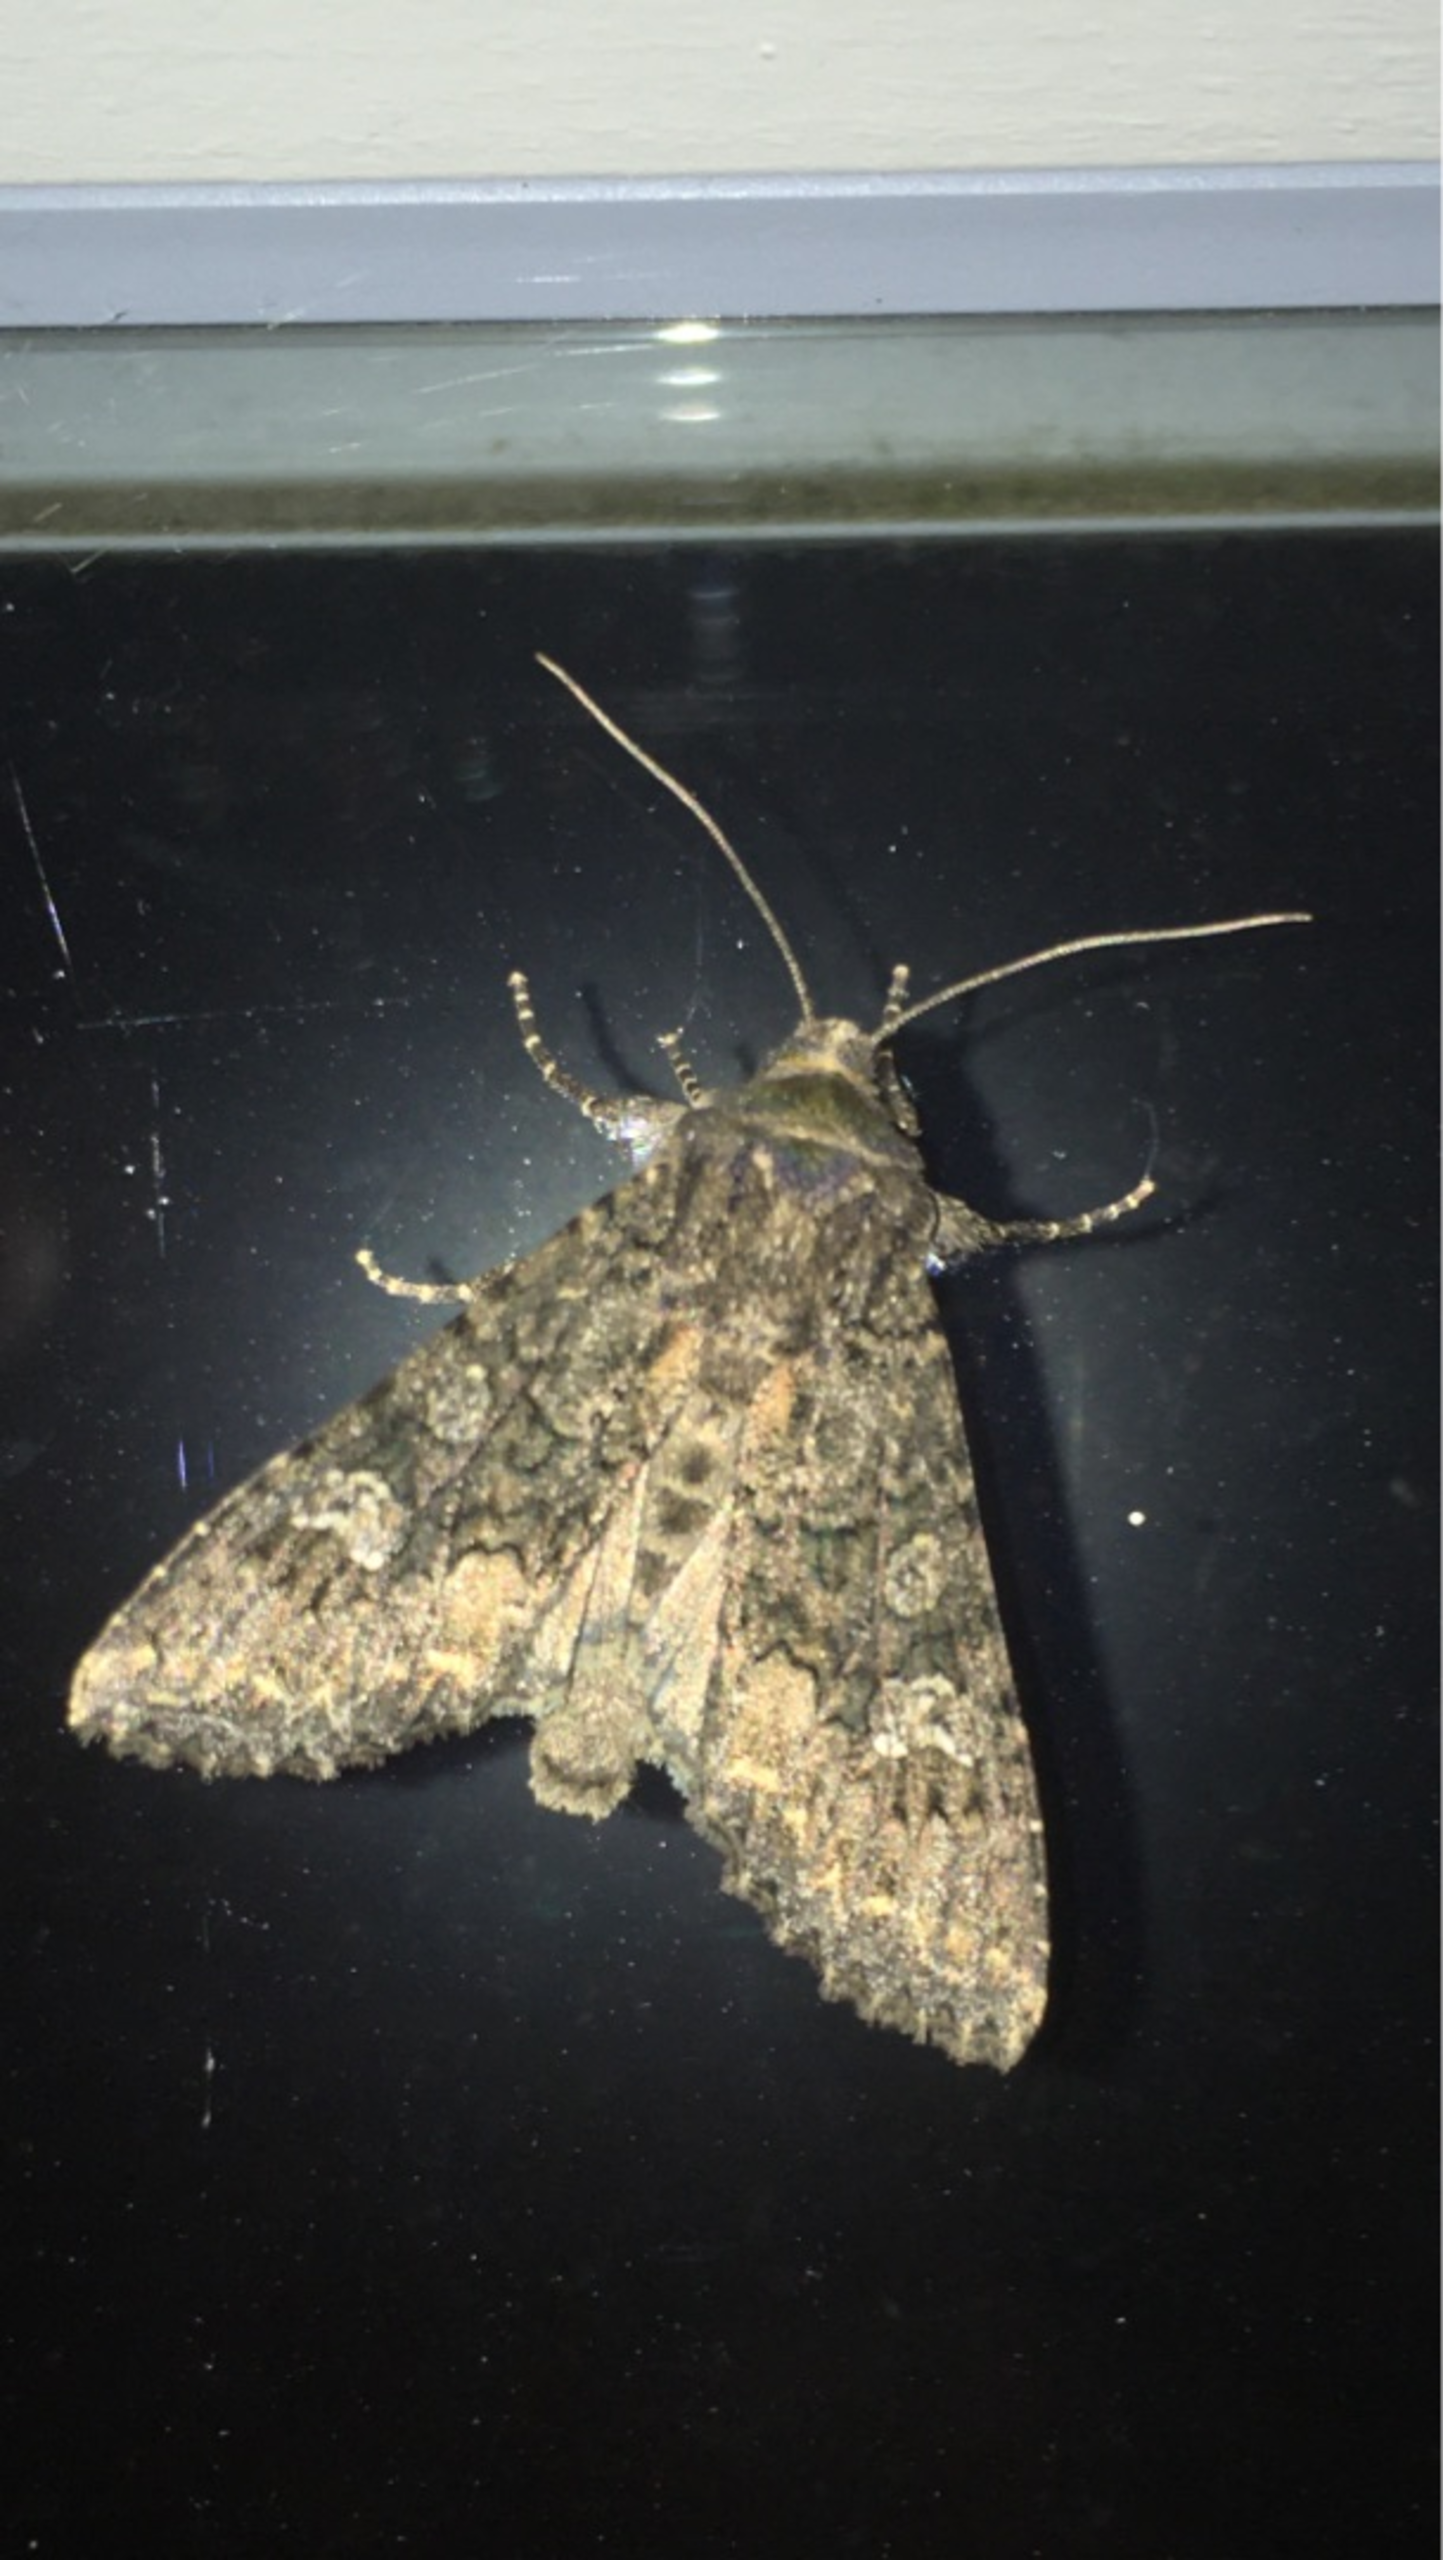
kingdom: Animalia
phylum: Arthropoda
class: Insecta
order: Lepidoptera
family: Noctuidae
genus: Mamestra
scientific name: Mamestra brassicae
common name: Kålugle
